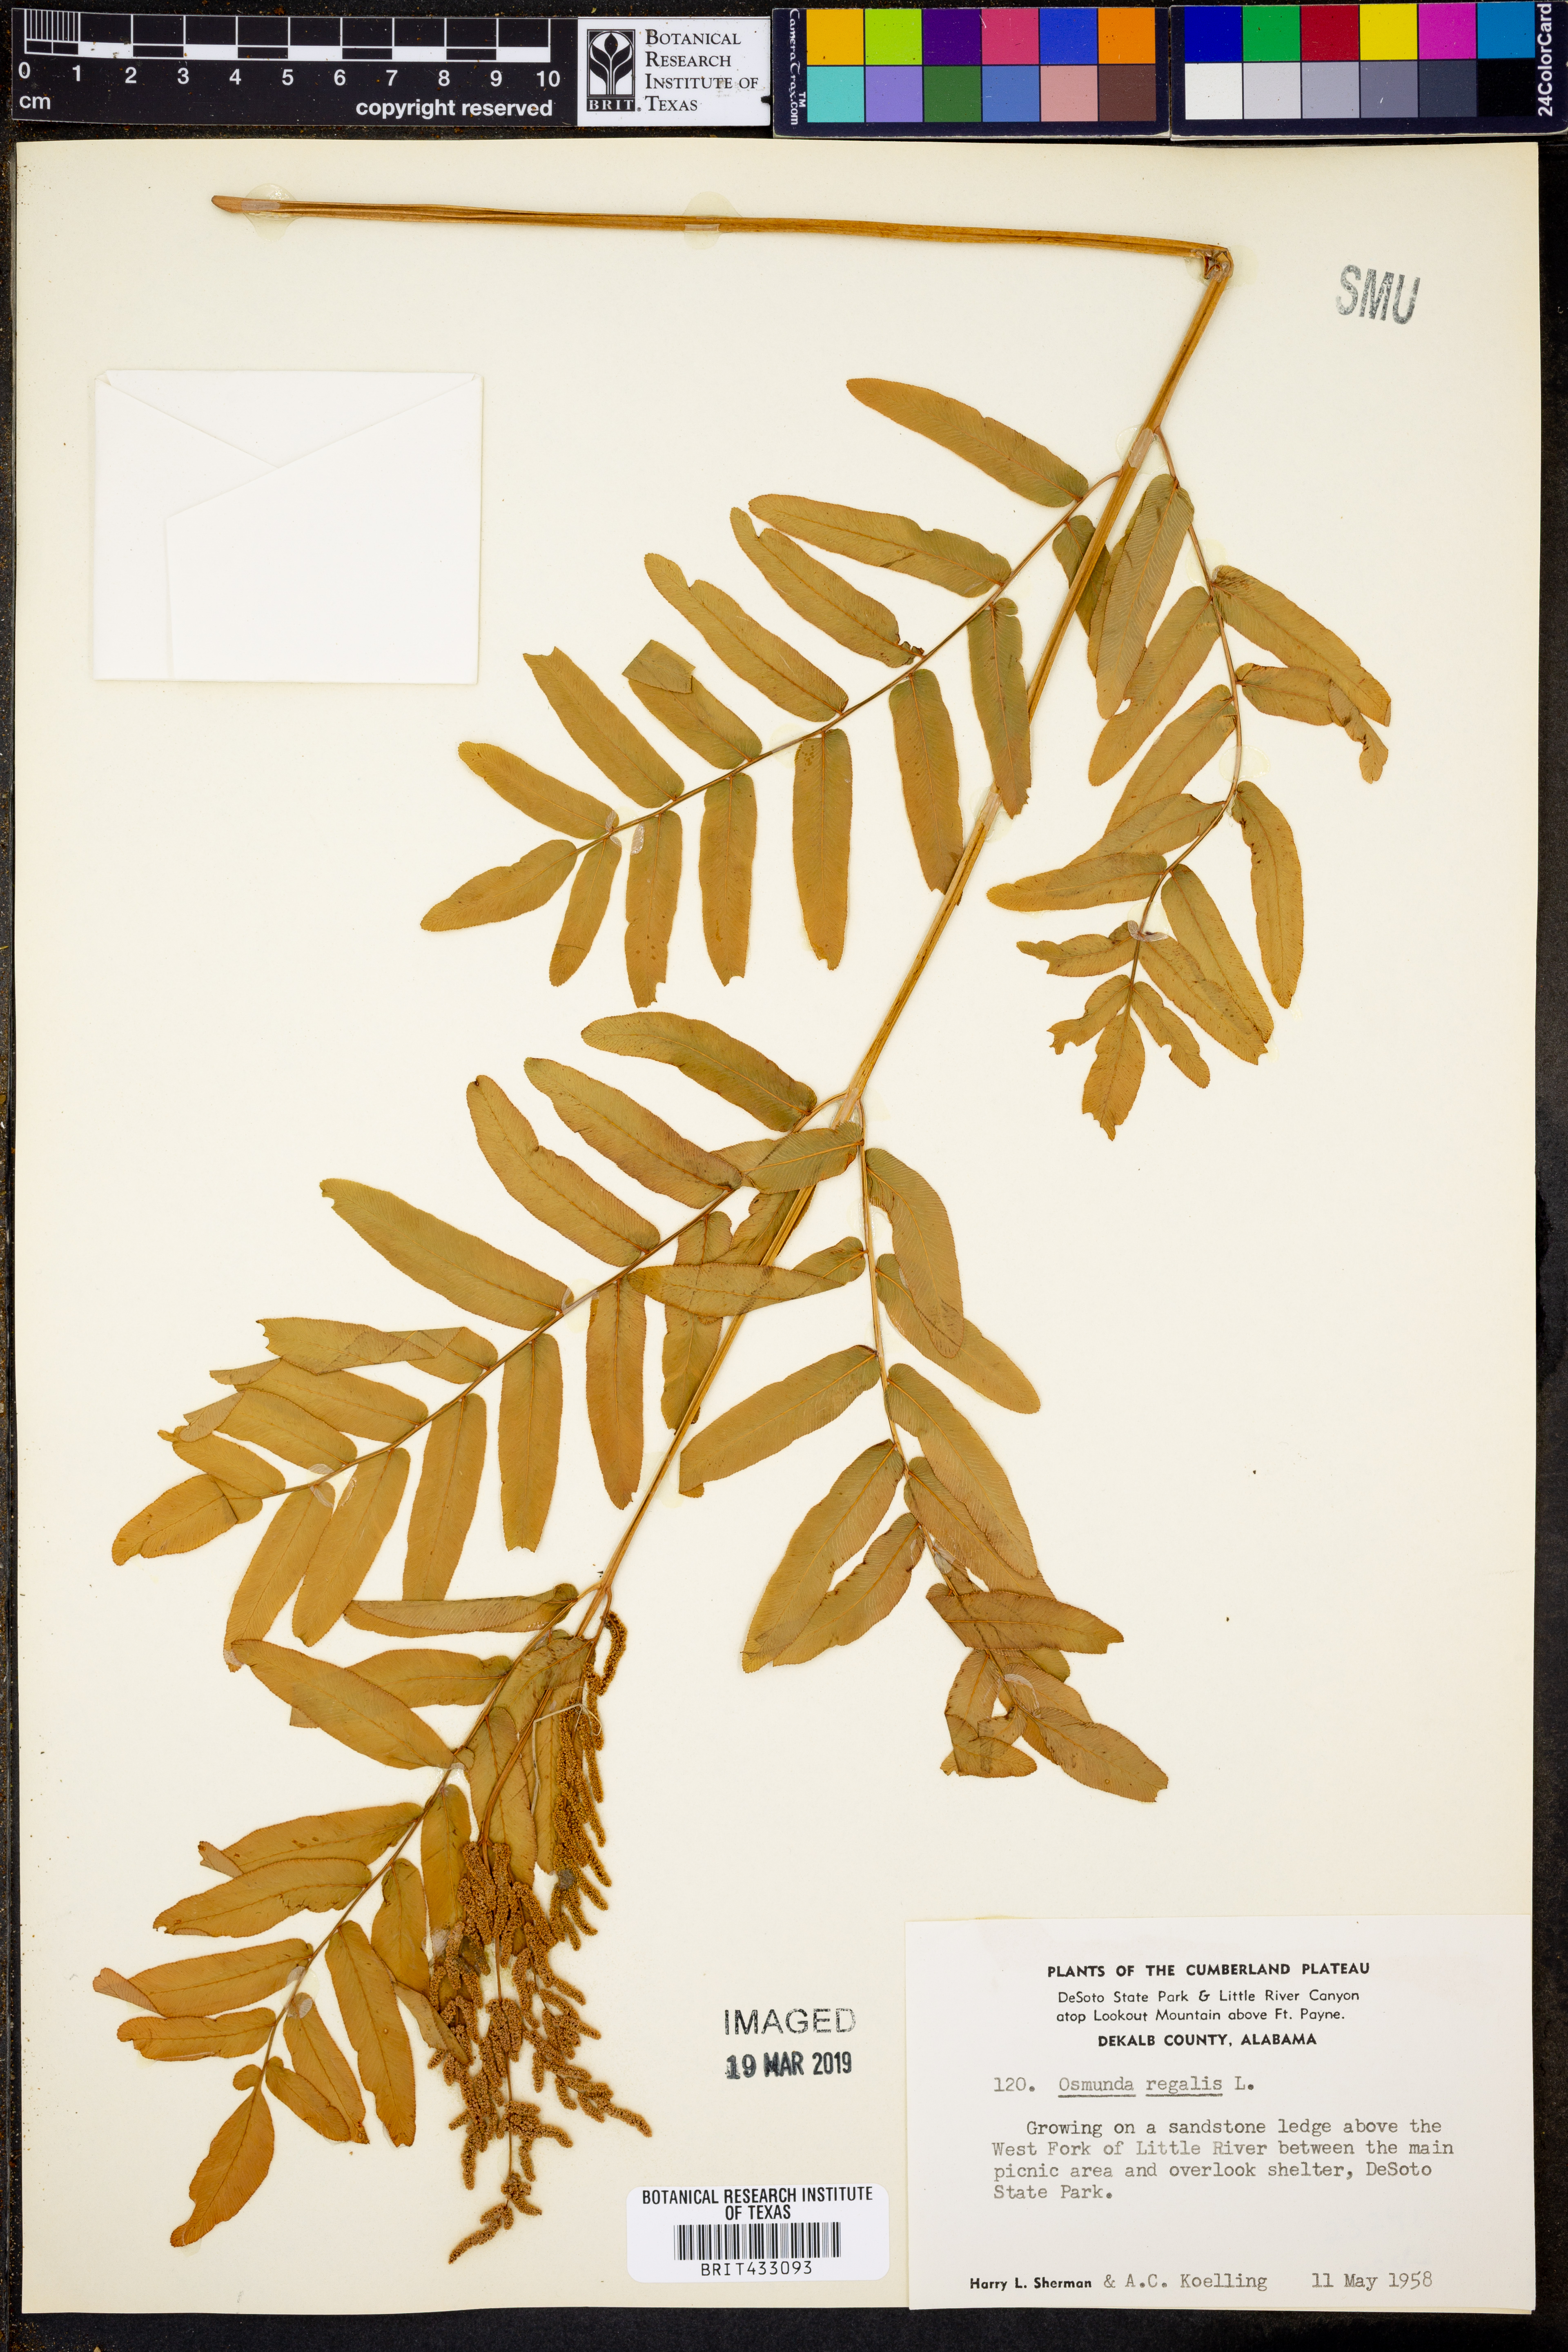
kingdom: Plantae
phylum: Tracheophyta
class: Polypodiopsida
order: Osmundales
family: Osmundaceae
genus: Osmunda
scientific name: Osmunda spectabilis
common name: American royal fern
